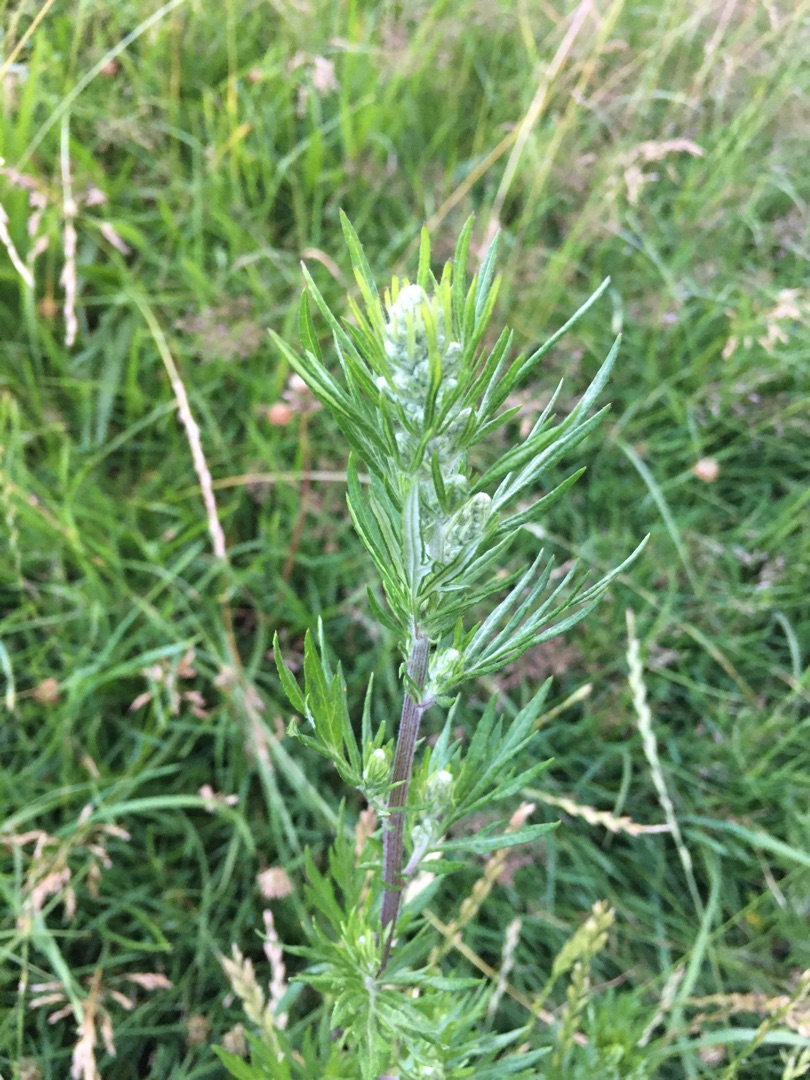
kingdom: Plantae
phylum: Tracheophyta
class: Magnoliopsida
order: Asterales
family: Asteraceae
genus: Artemisia
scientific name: Artemisia vulgaris
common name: Grå-bynke
